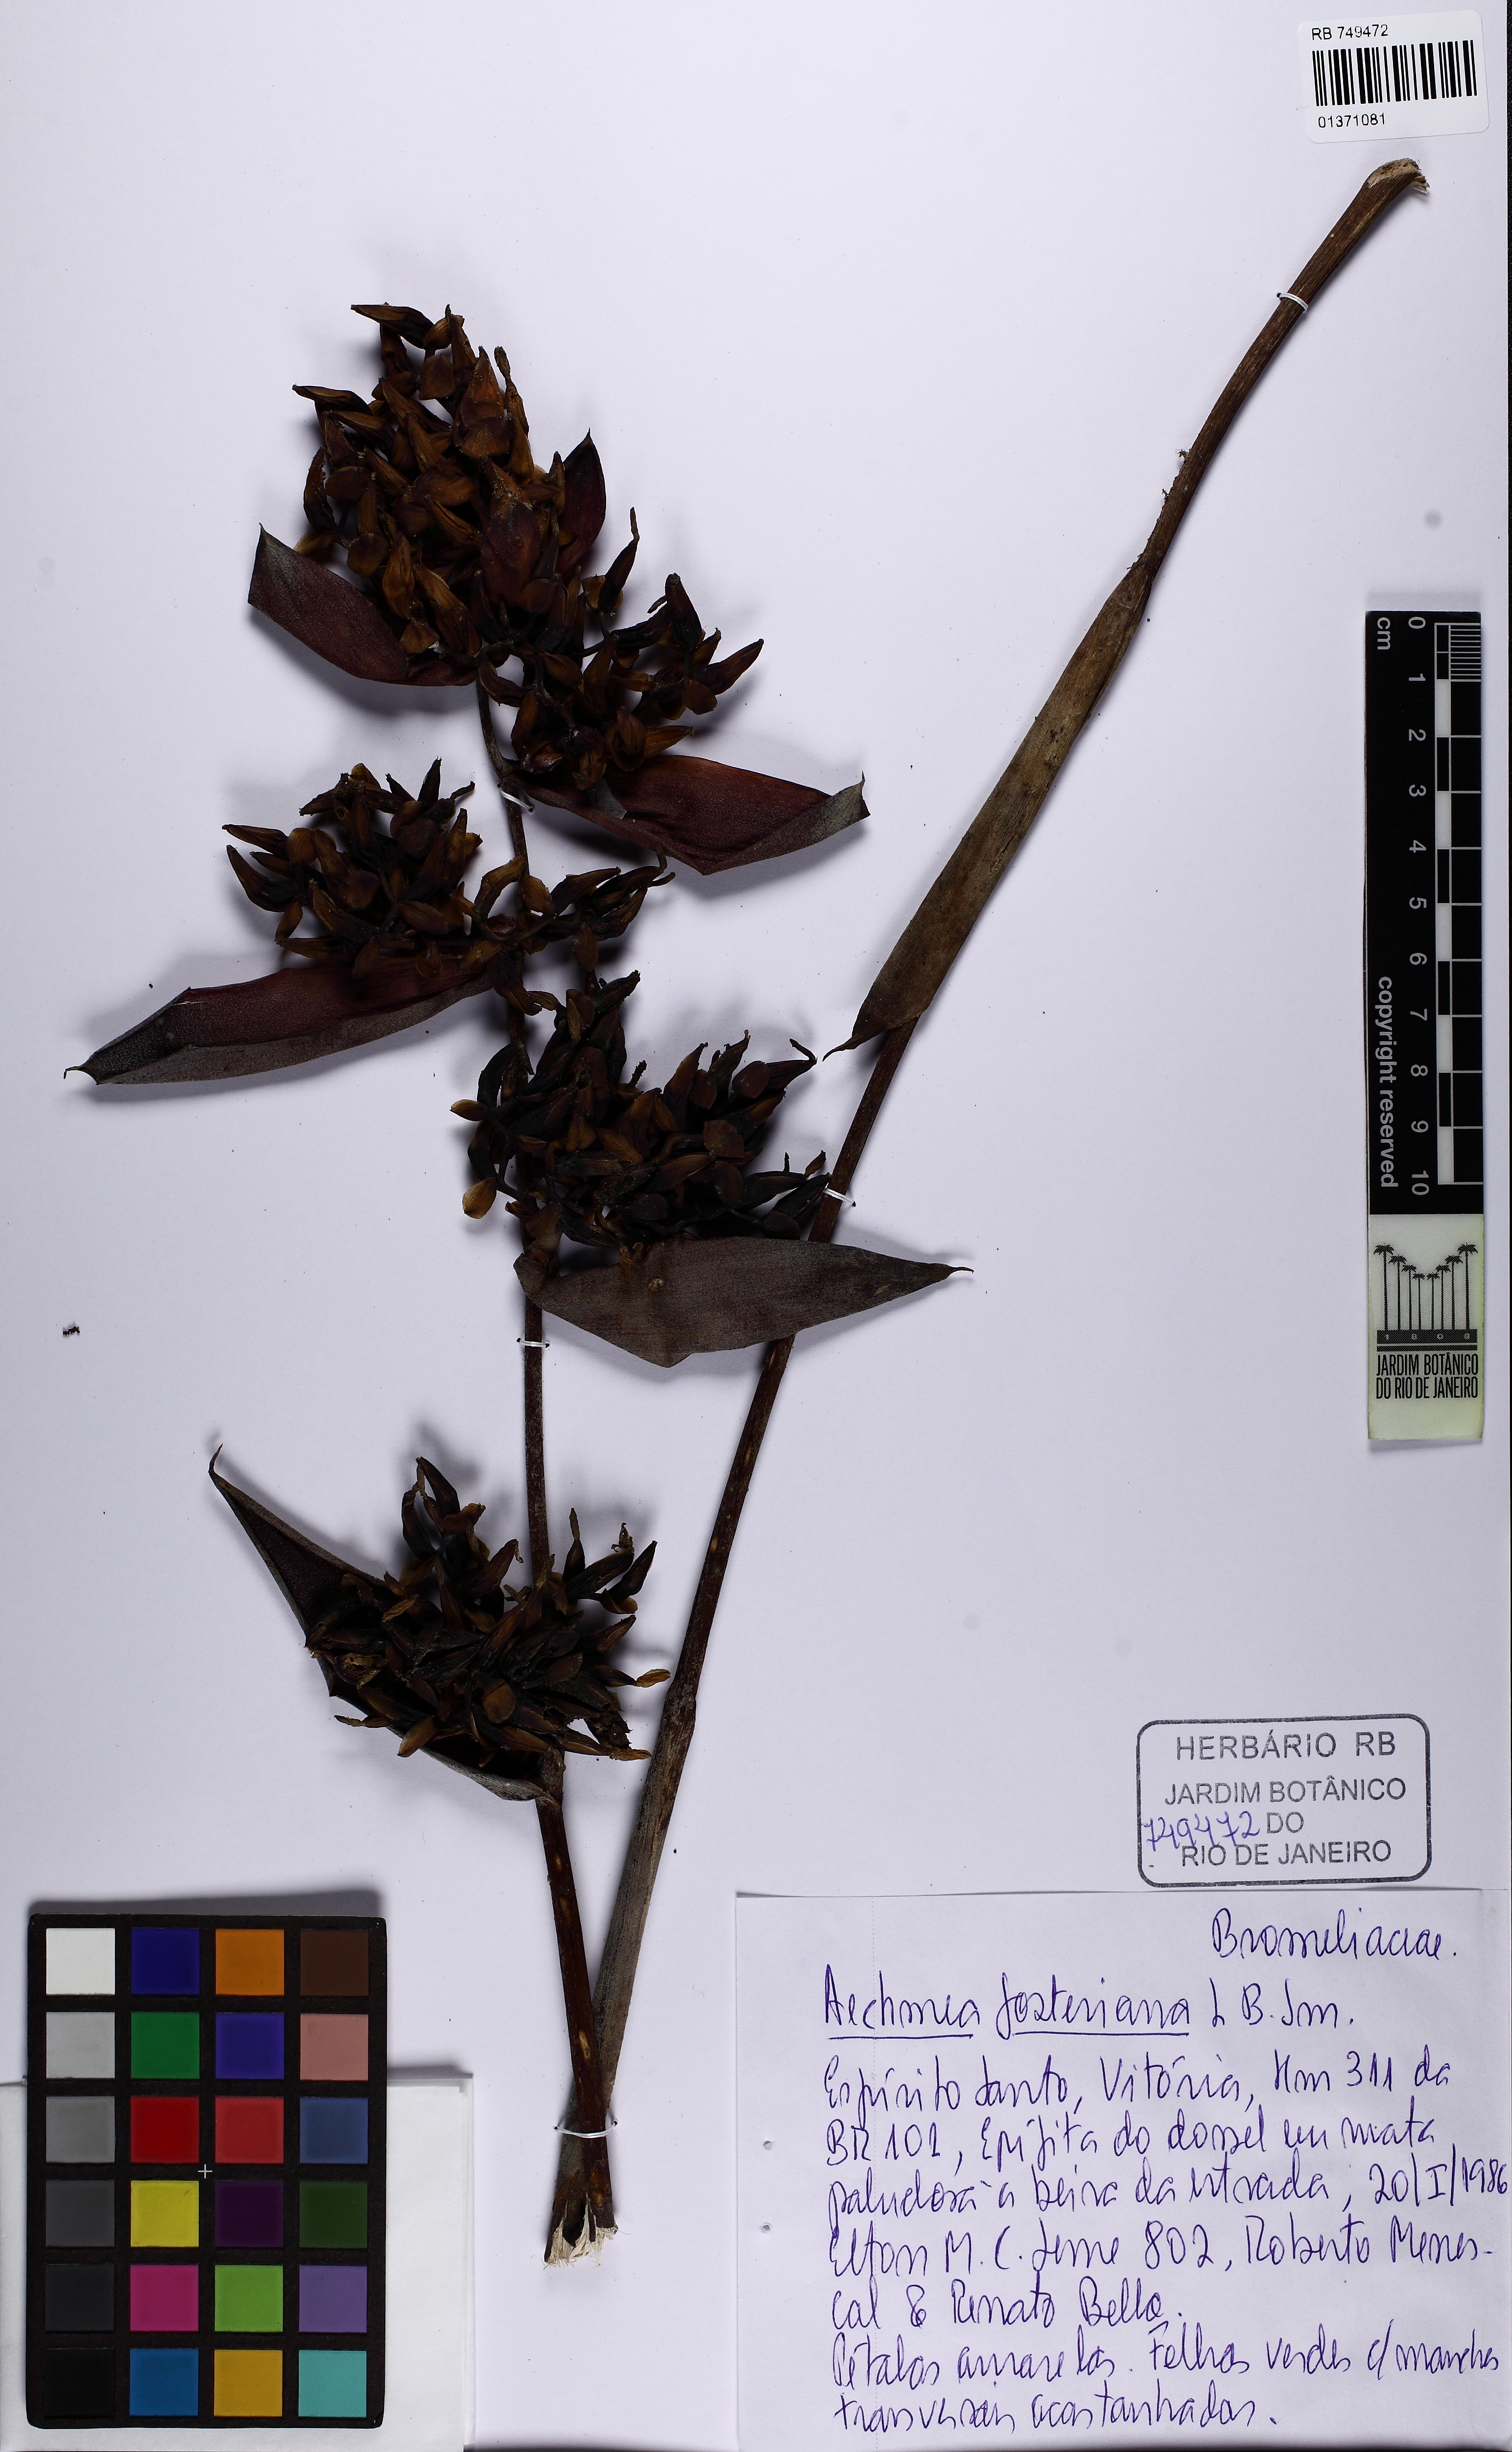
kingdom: Plantae
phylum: Tracheophyta
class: Liliopsida
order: Poales
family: Bromeliaceae
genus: Aechmea
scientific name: Aechmea fosteriana
